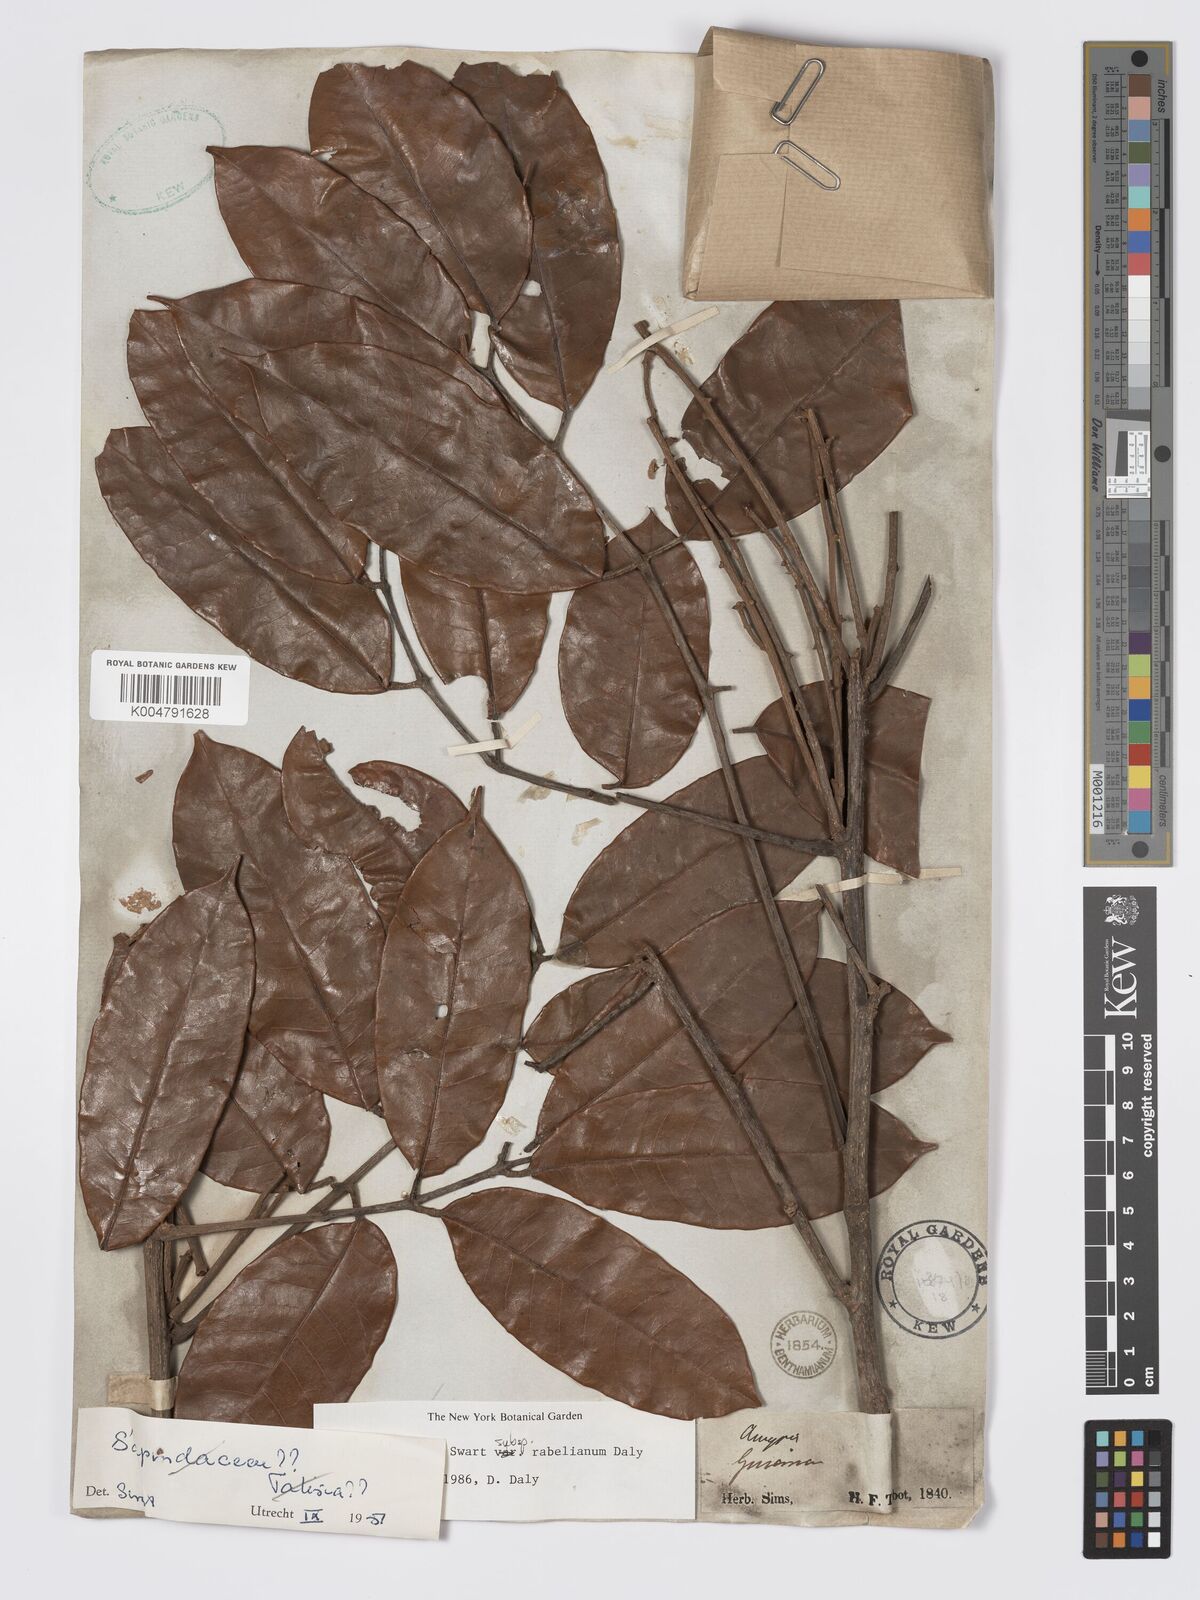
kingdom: Plantae
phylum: Tracheophyta
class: Magnoliopsida
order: Sapindales
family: Burseraceae
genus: Protium
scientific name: Protium opacum
